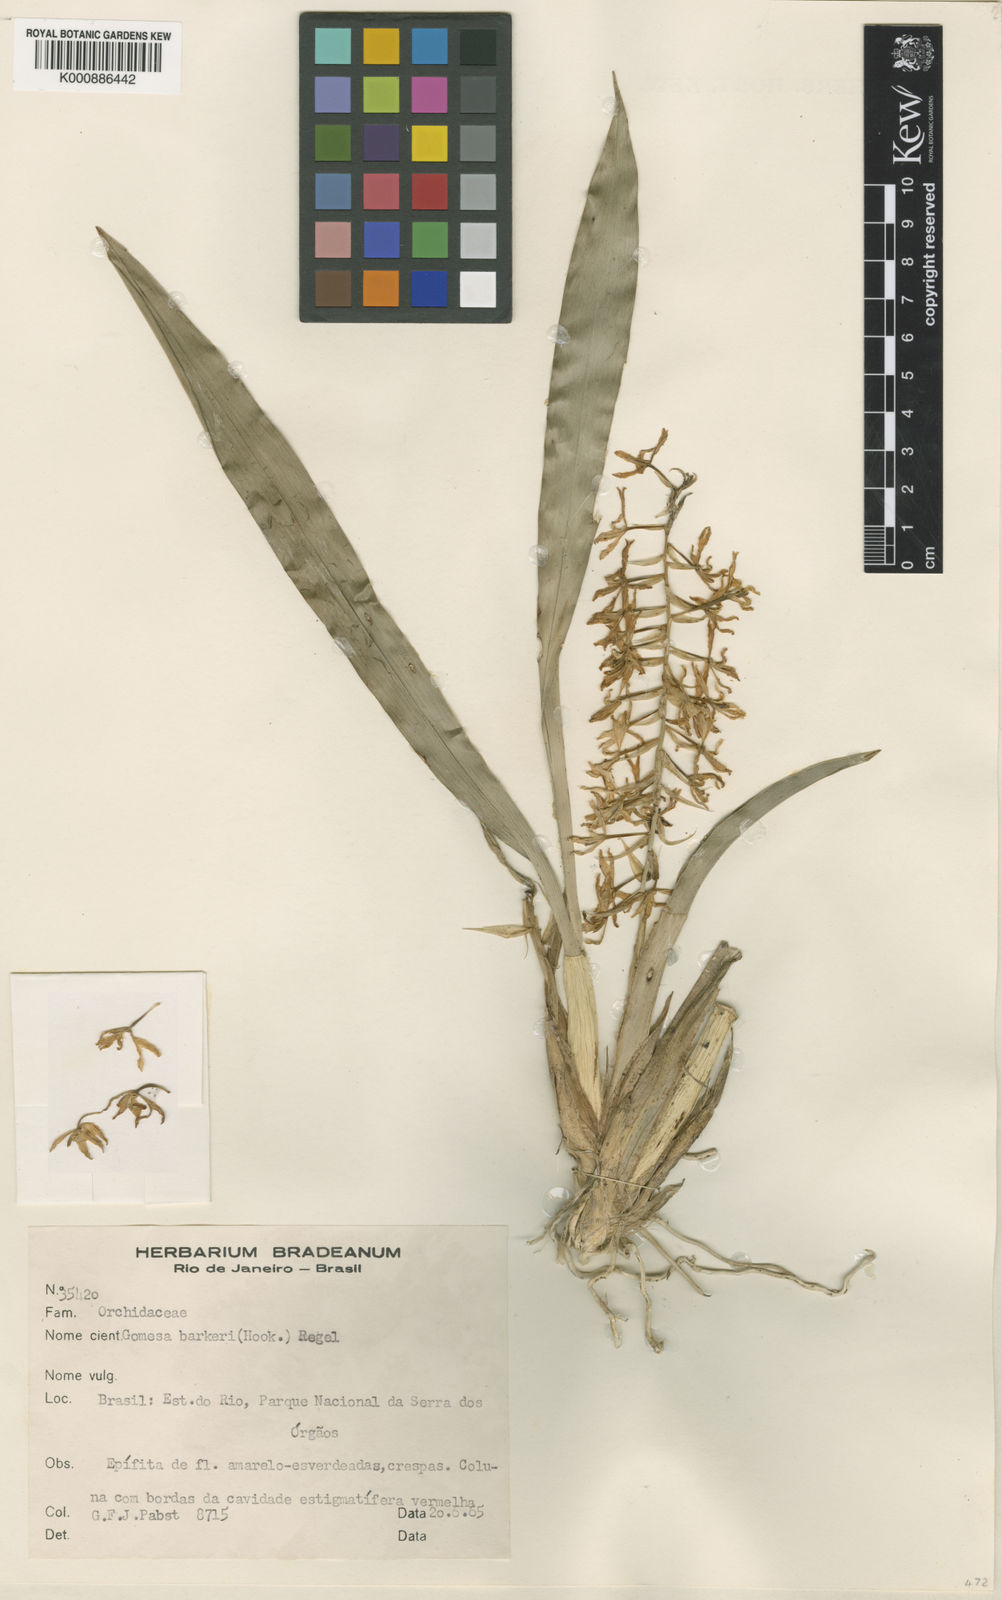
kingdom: Plantae
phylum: Tracheophyta
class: Liliopsida
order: Asparagales
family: Orchidaceae
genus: Gomesa
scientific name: Gomesa recurva
